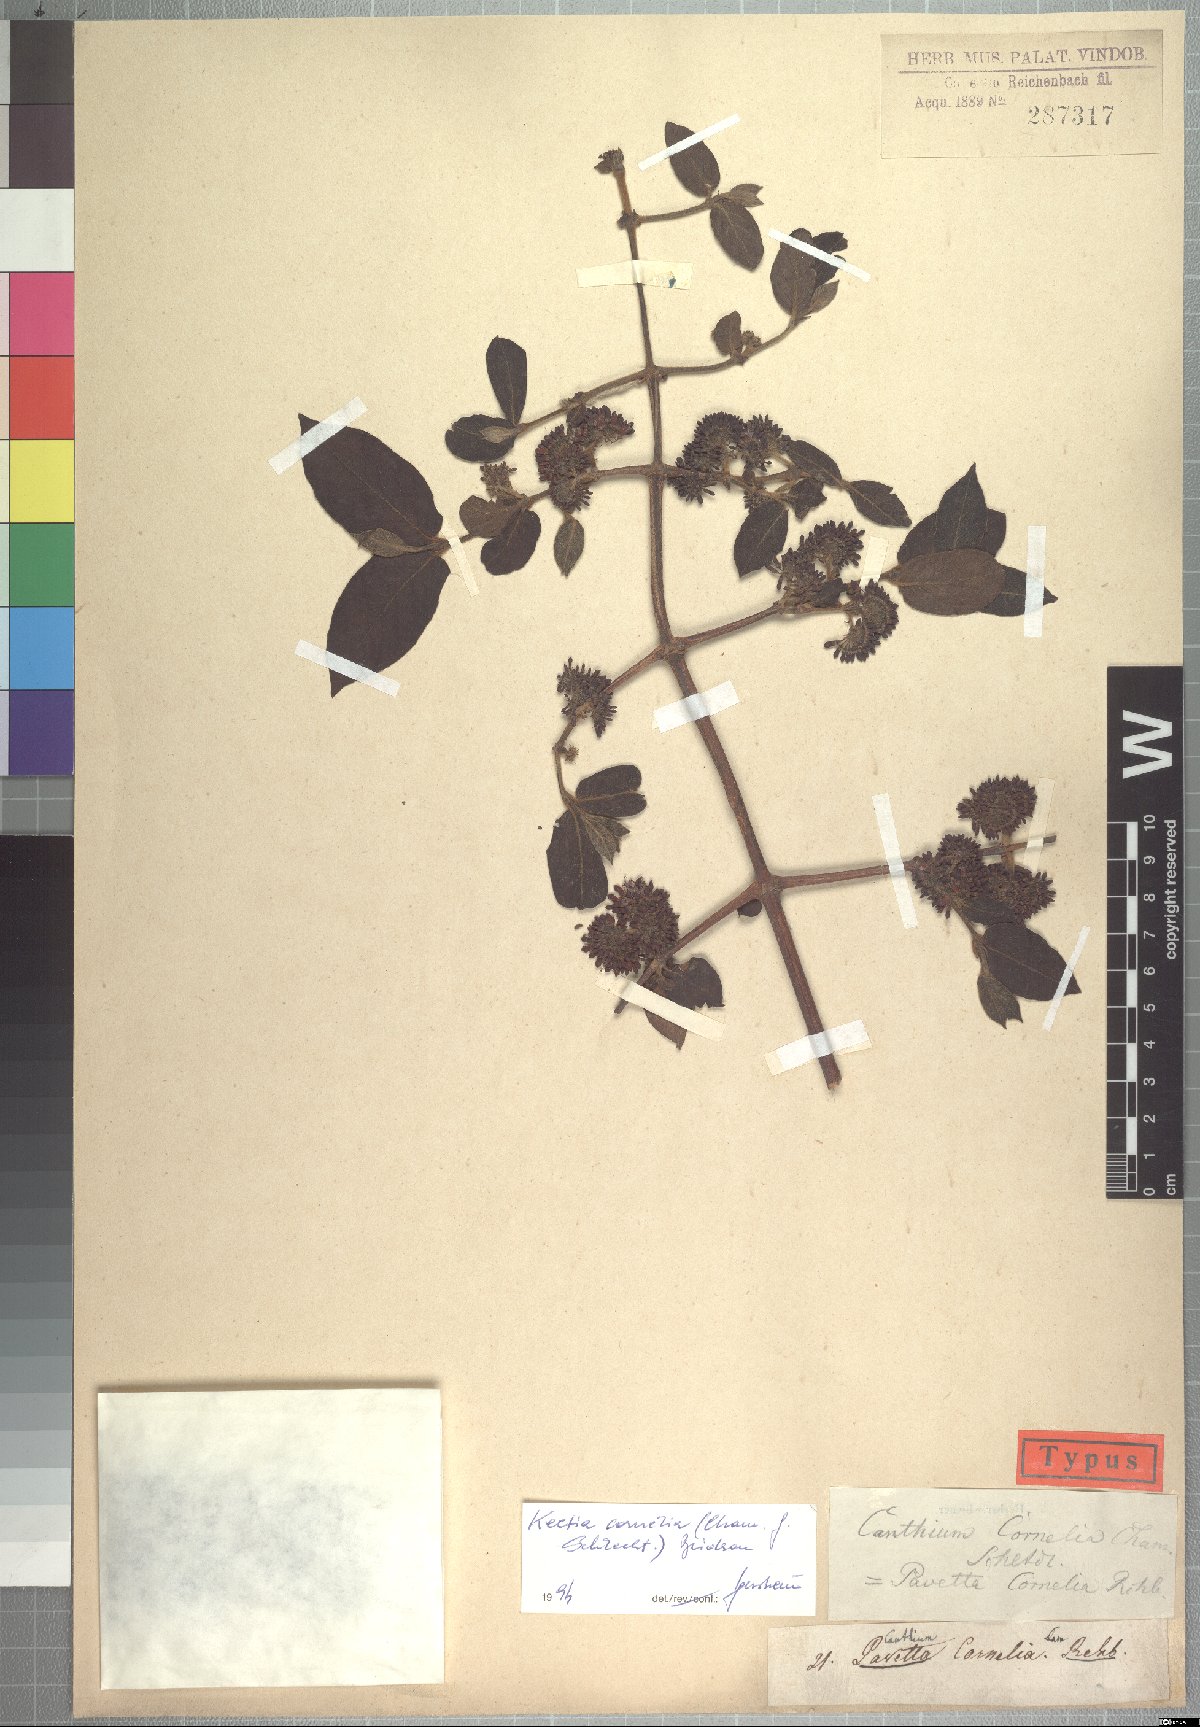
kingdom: Plantae
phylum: Tracheophyta
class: Magnoliopsida
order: Gentianales
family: Rubiaceae
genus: Keetia
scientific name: Keetia cornelia
